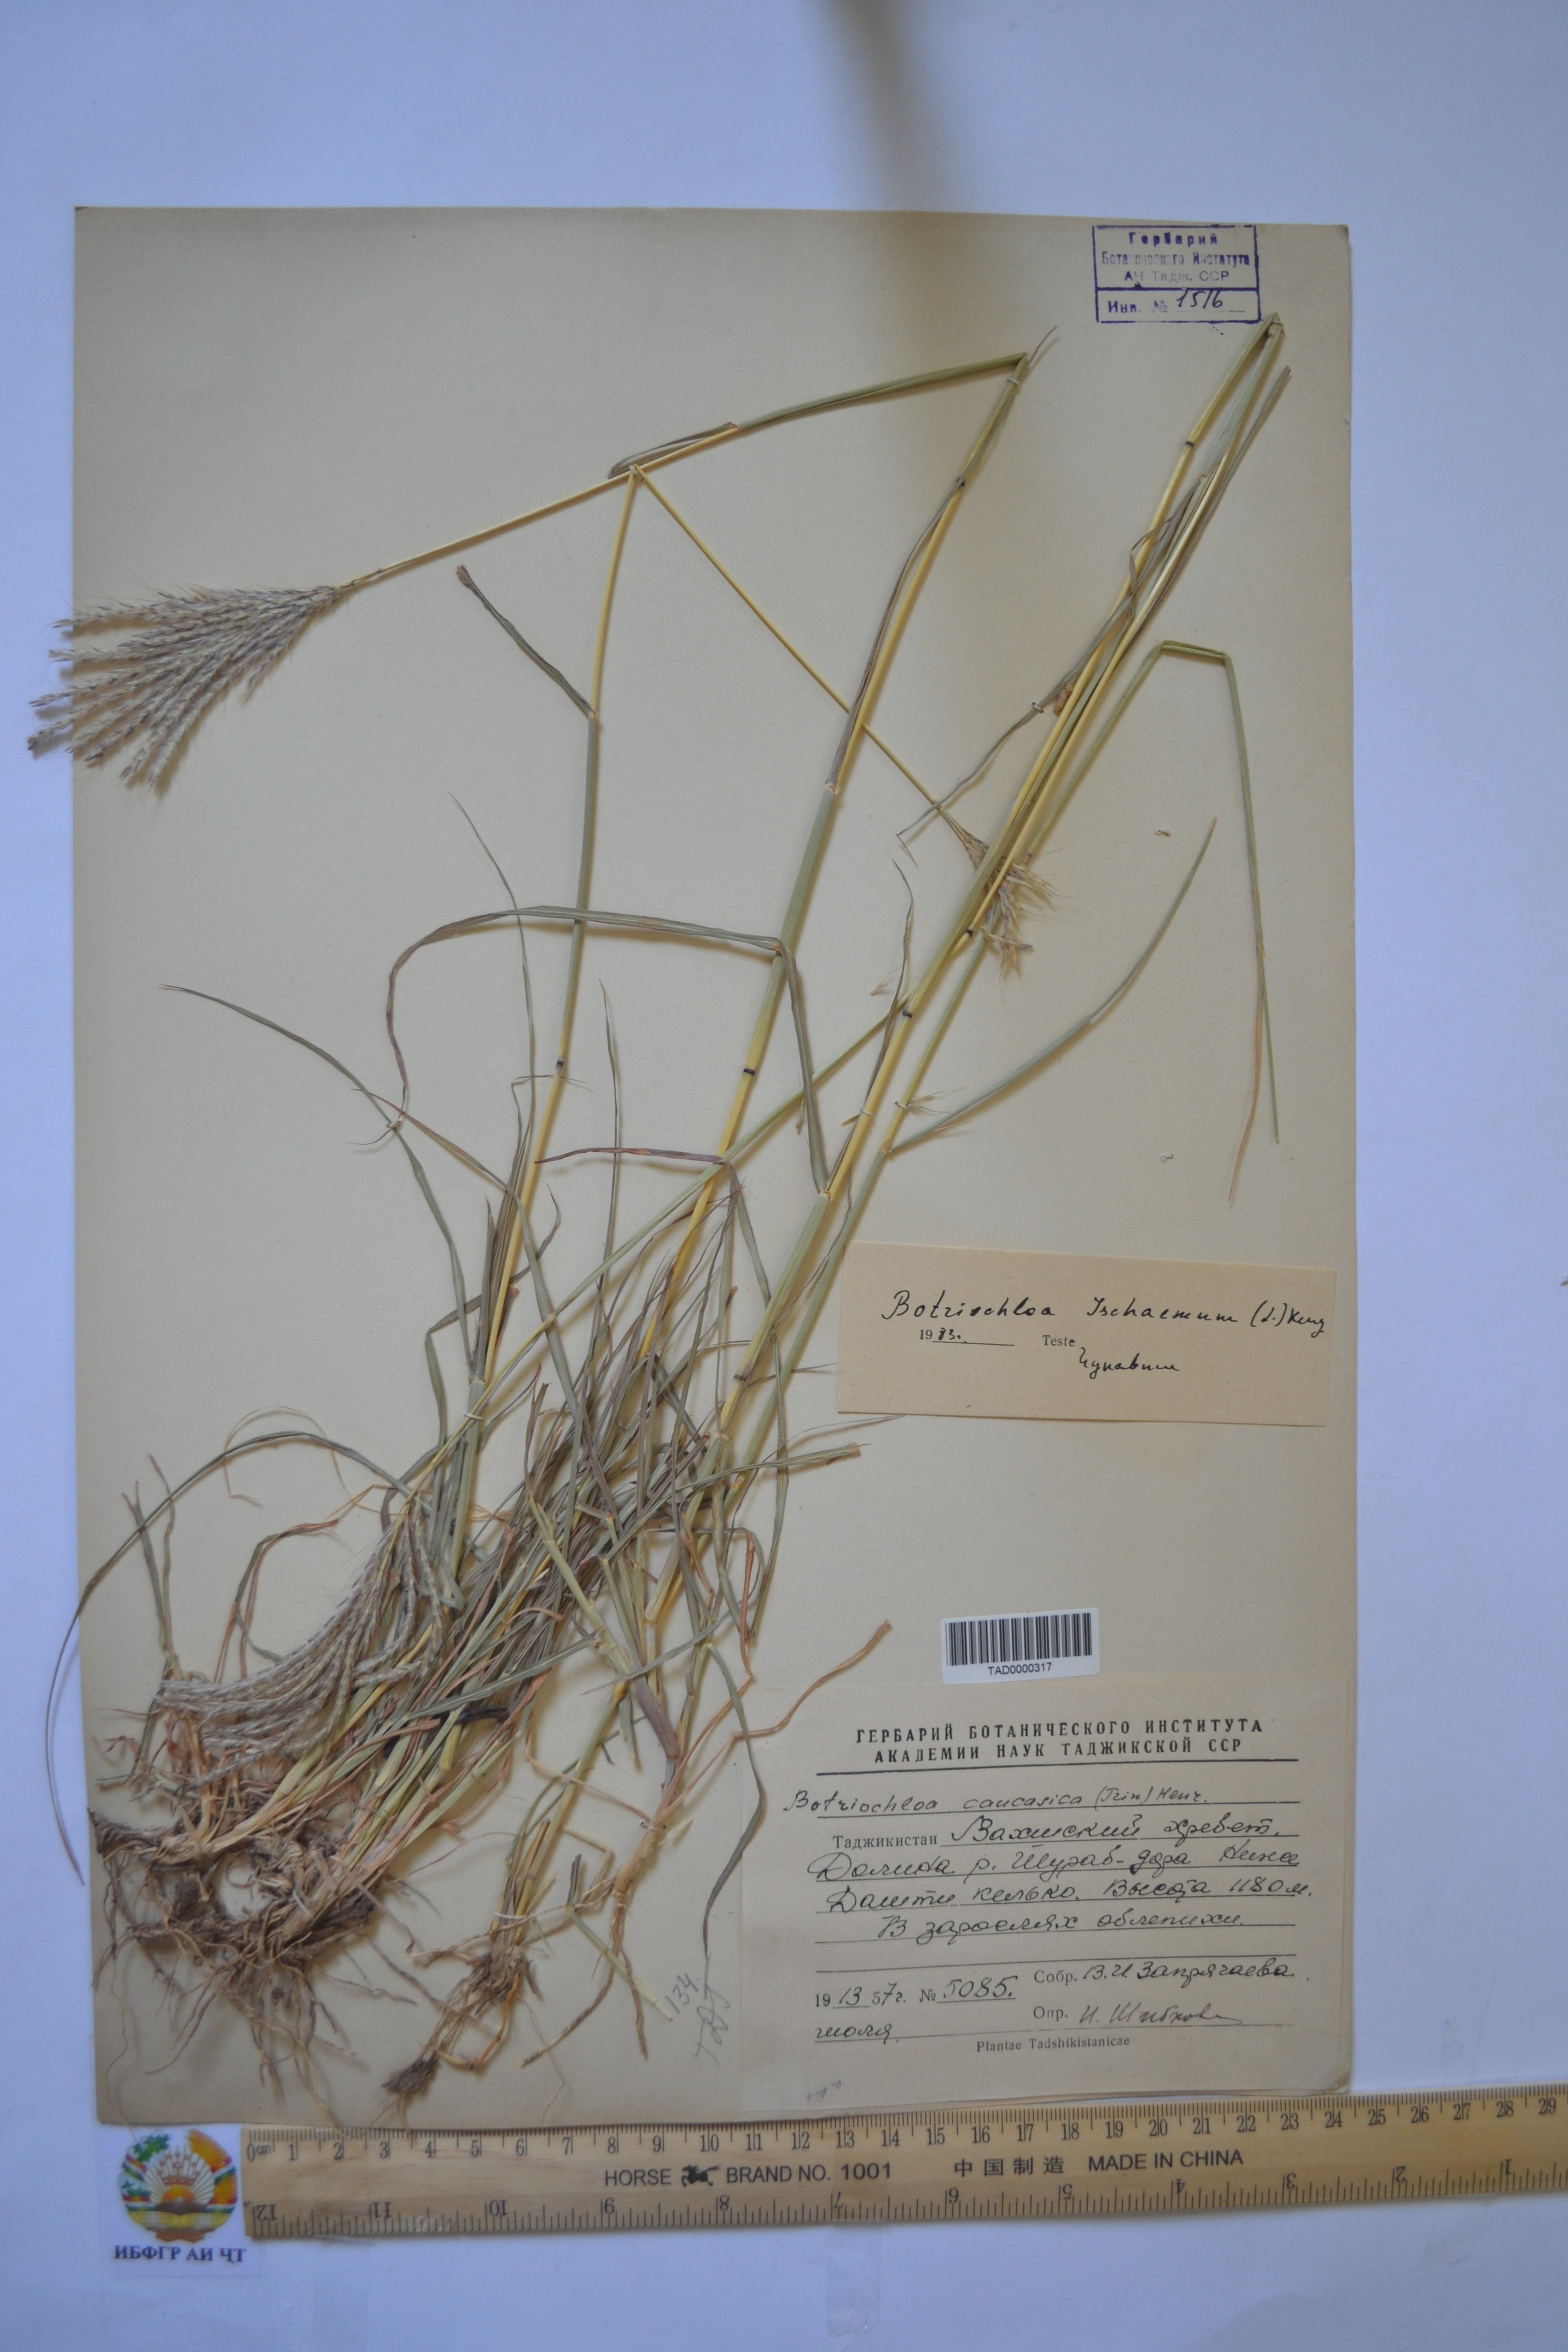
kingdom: Plantae
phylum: Tracheophyta
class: Liliopsida
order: Poales
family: Poaceae
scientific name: Poaceae
